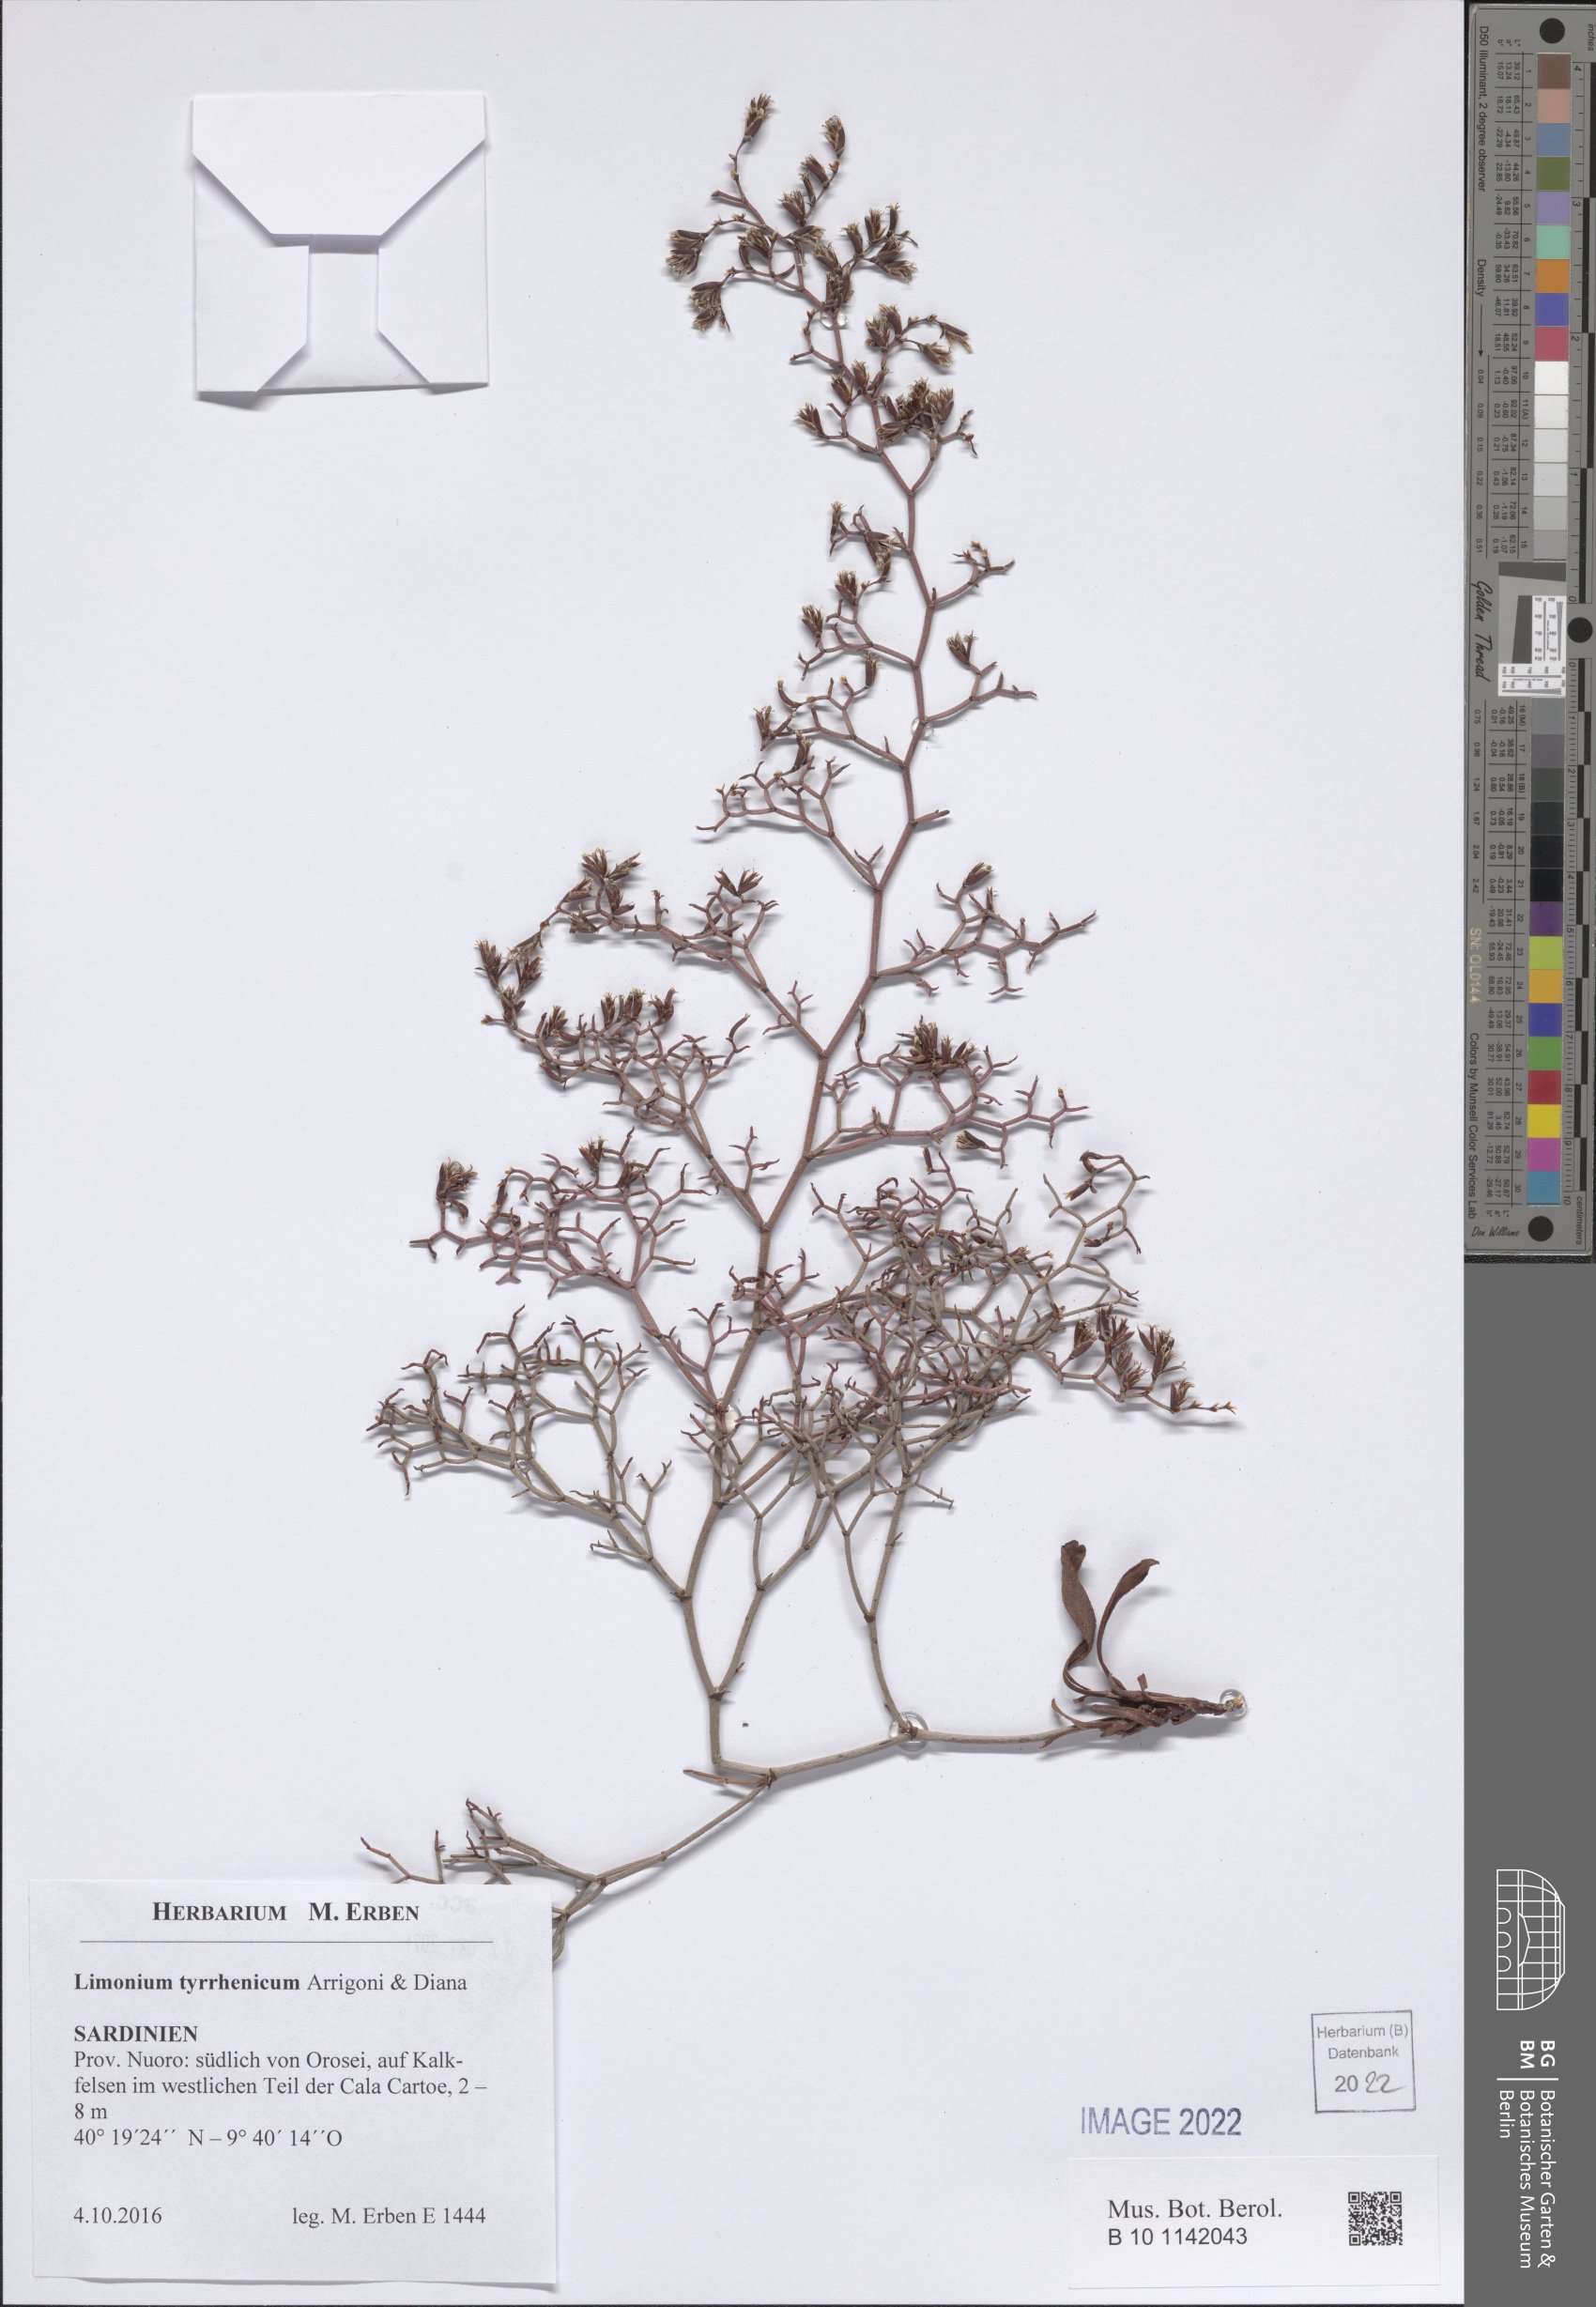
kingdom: Plantae
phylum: Tracheophyta
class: Magnoliopsida
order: Caryophyllales
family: Plumbaginaceae
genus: Limonium
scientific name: Limonium tyrrhenicum
